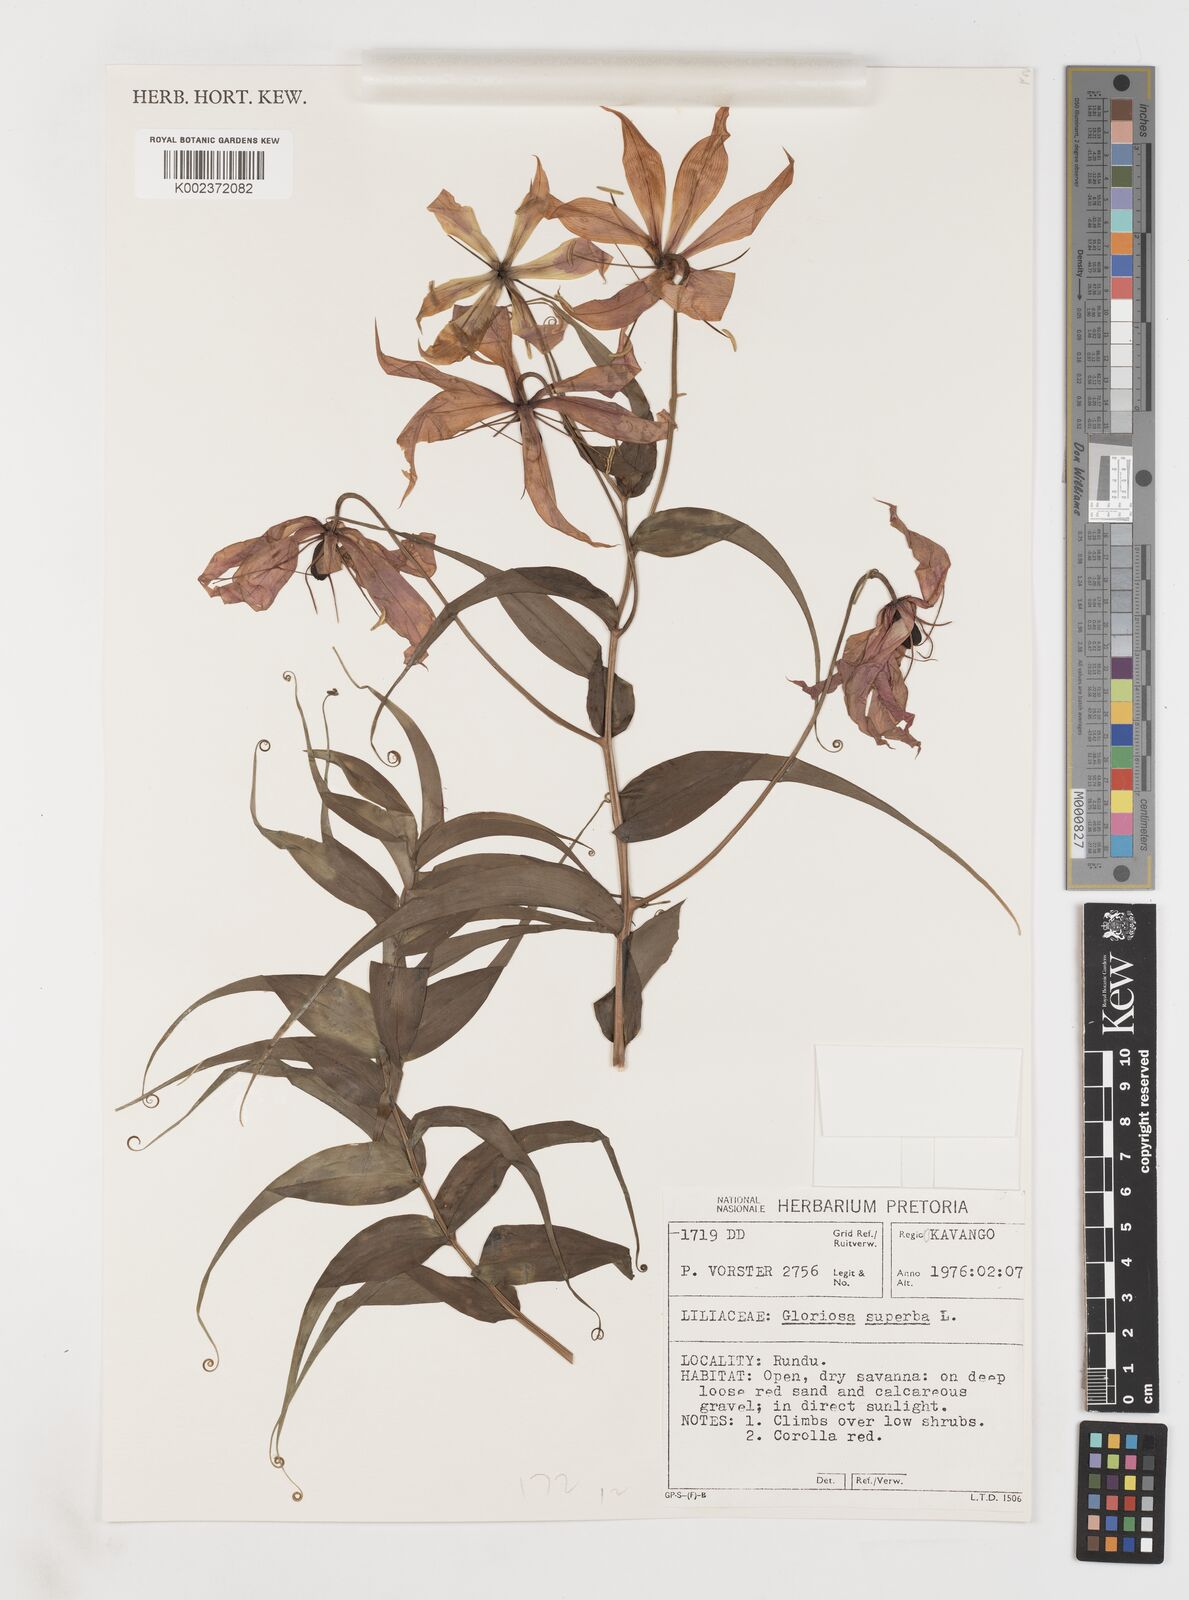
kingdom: Plantae
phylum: Tracheophyta
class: Liliopsida
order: Liliales
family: Colchicaceae
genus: Gloriosa
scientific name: Gloriosa simplex
